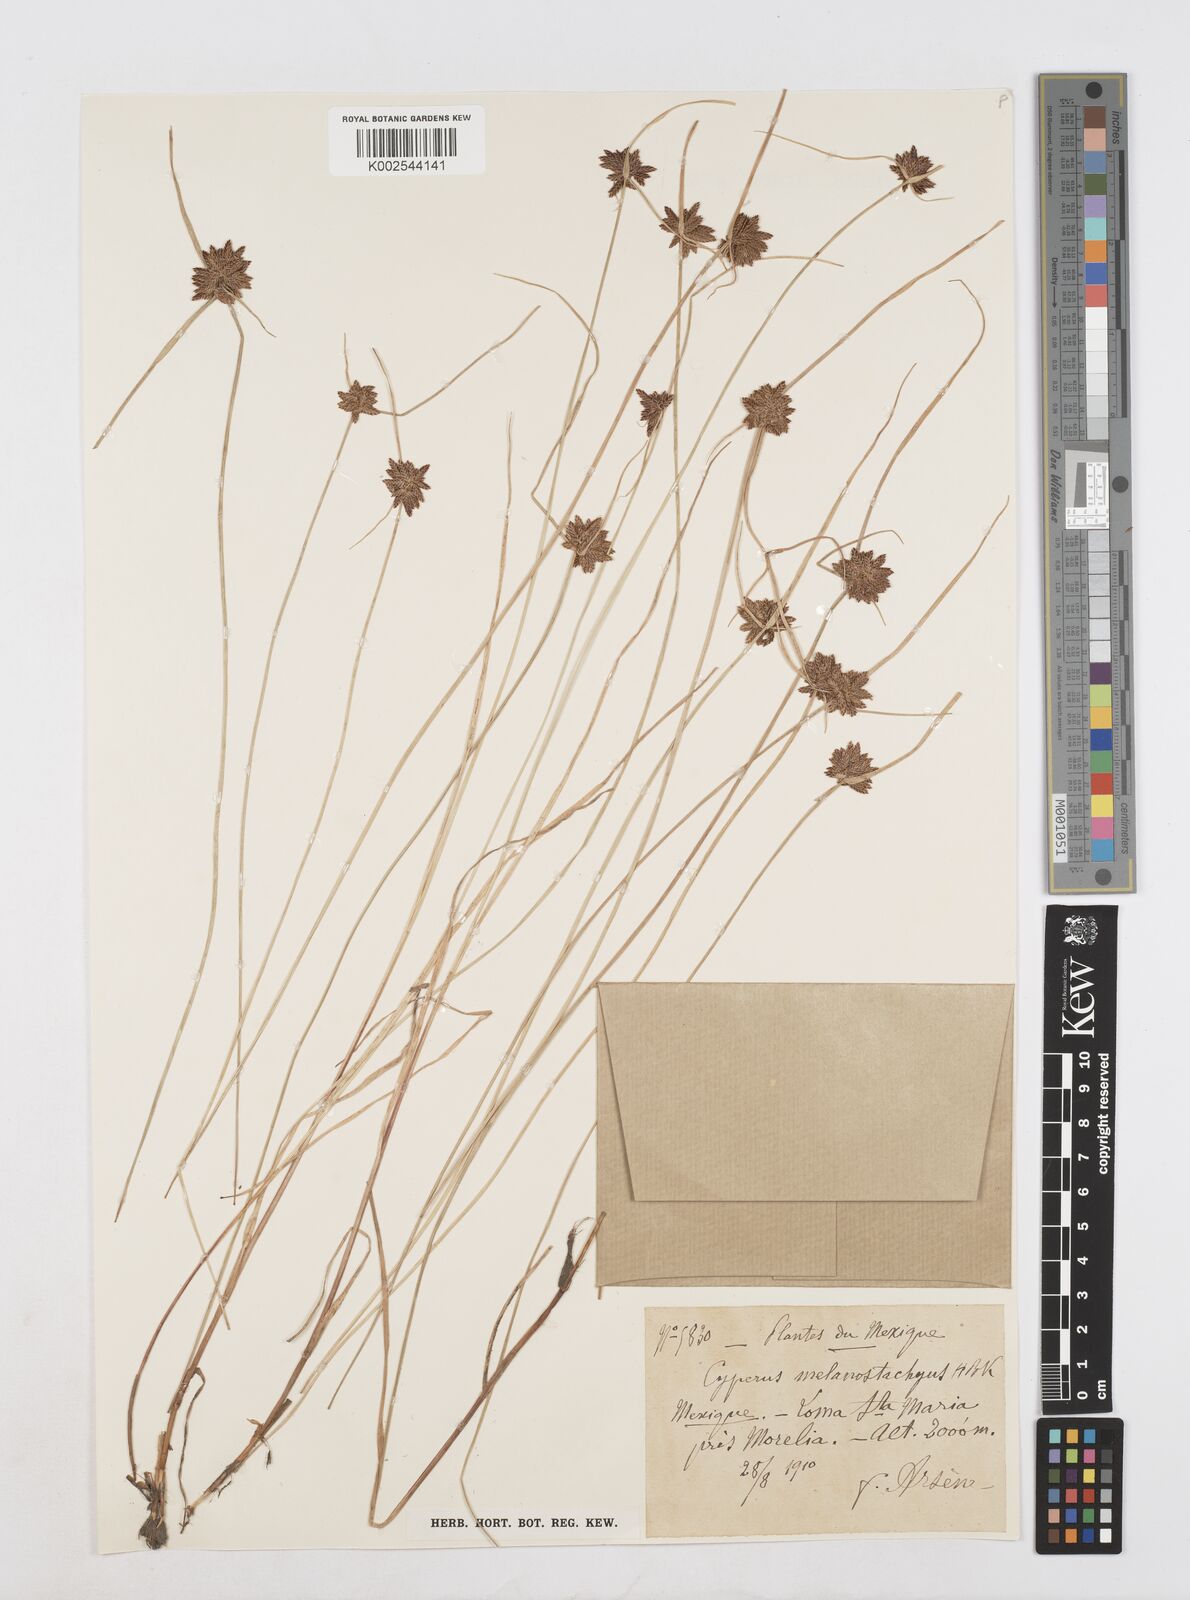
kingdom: Plantae
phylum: Tracheophyta
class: Liliopsida
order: Poales
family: Cyperaceae
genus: Cyperus
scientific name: Cyperus melanostachyus
